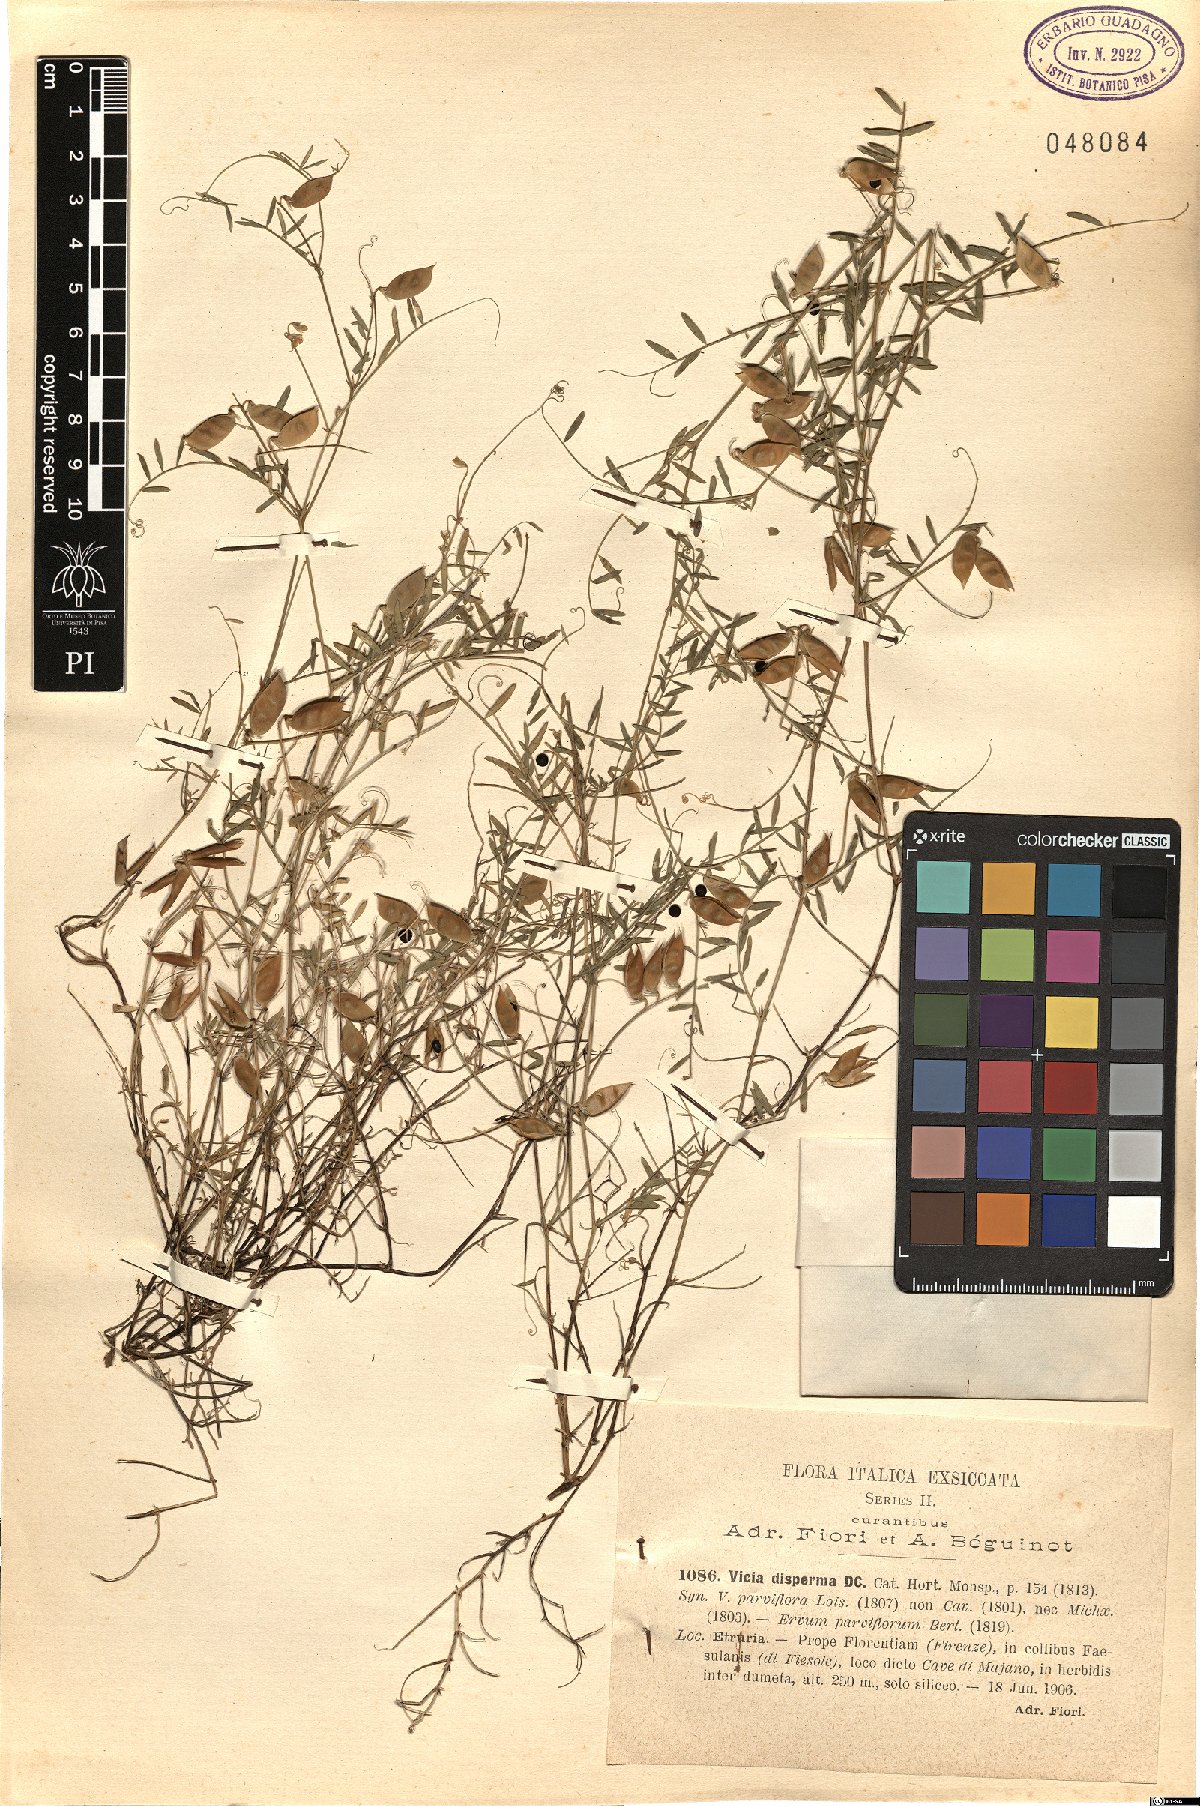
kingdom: Plantae
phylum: Tracheophyta
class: Magnoliopsida
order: Fabales
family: Fabaceae
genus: Vicia
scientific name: Vicia disperma
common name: European vetch
